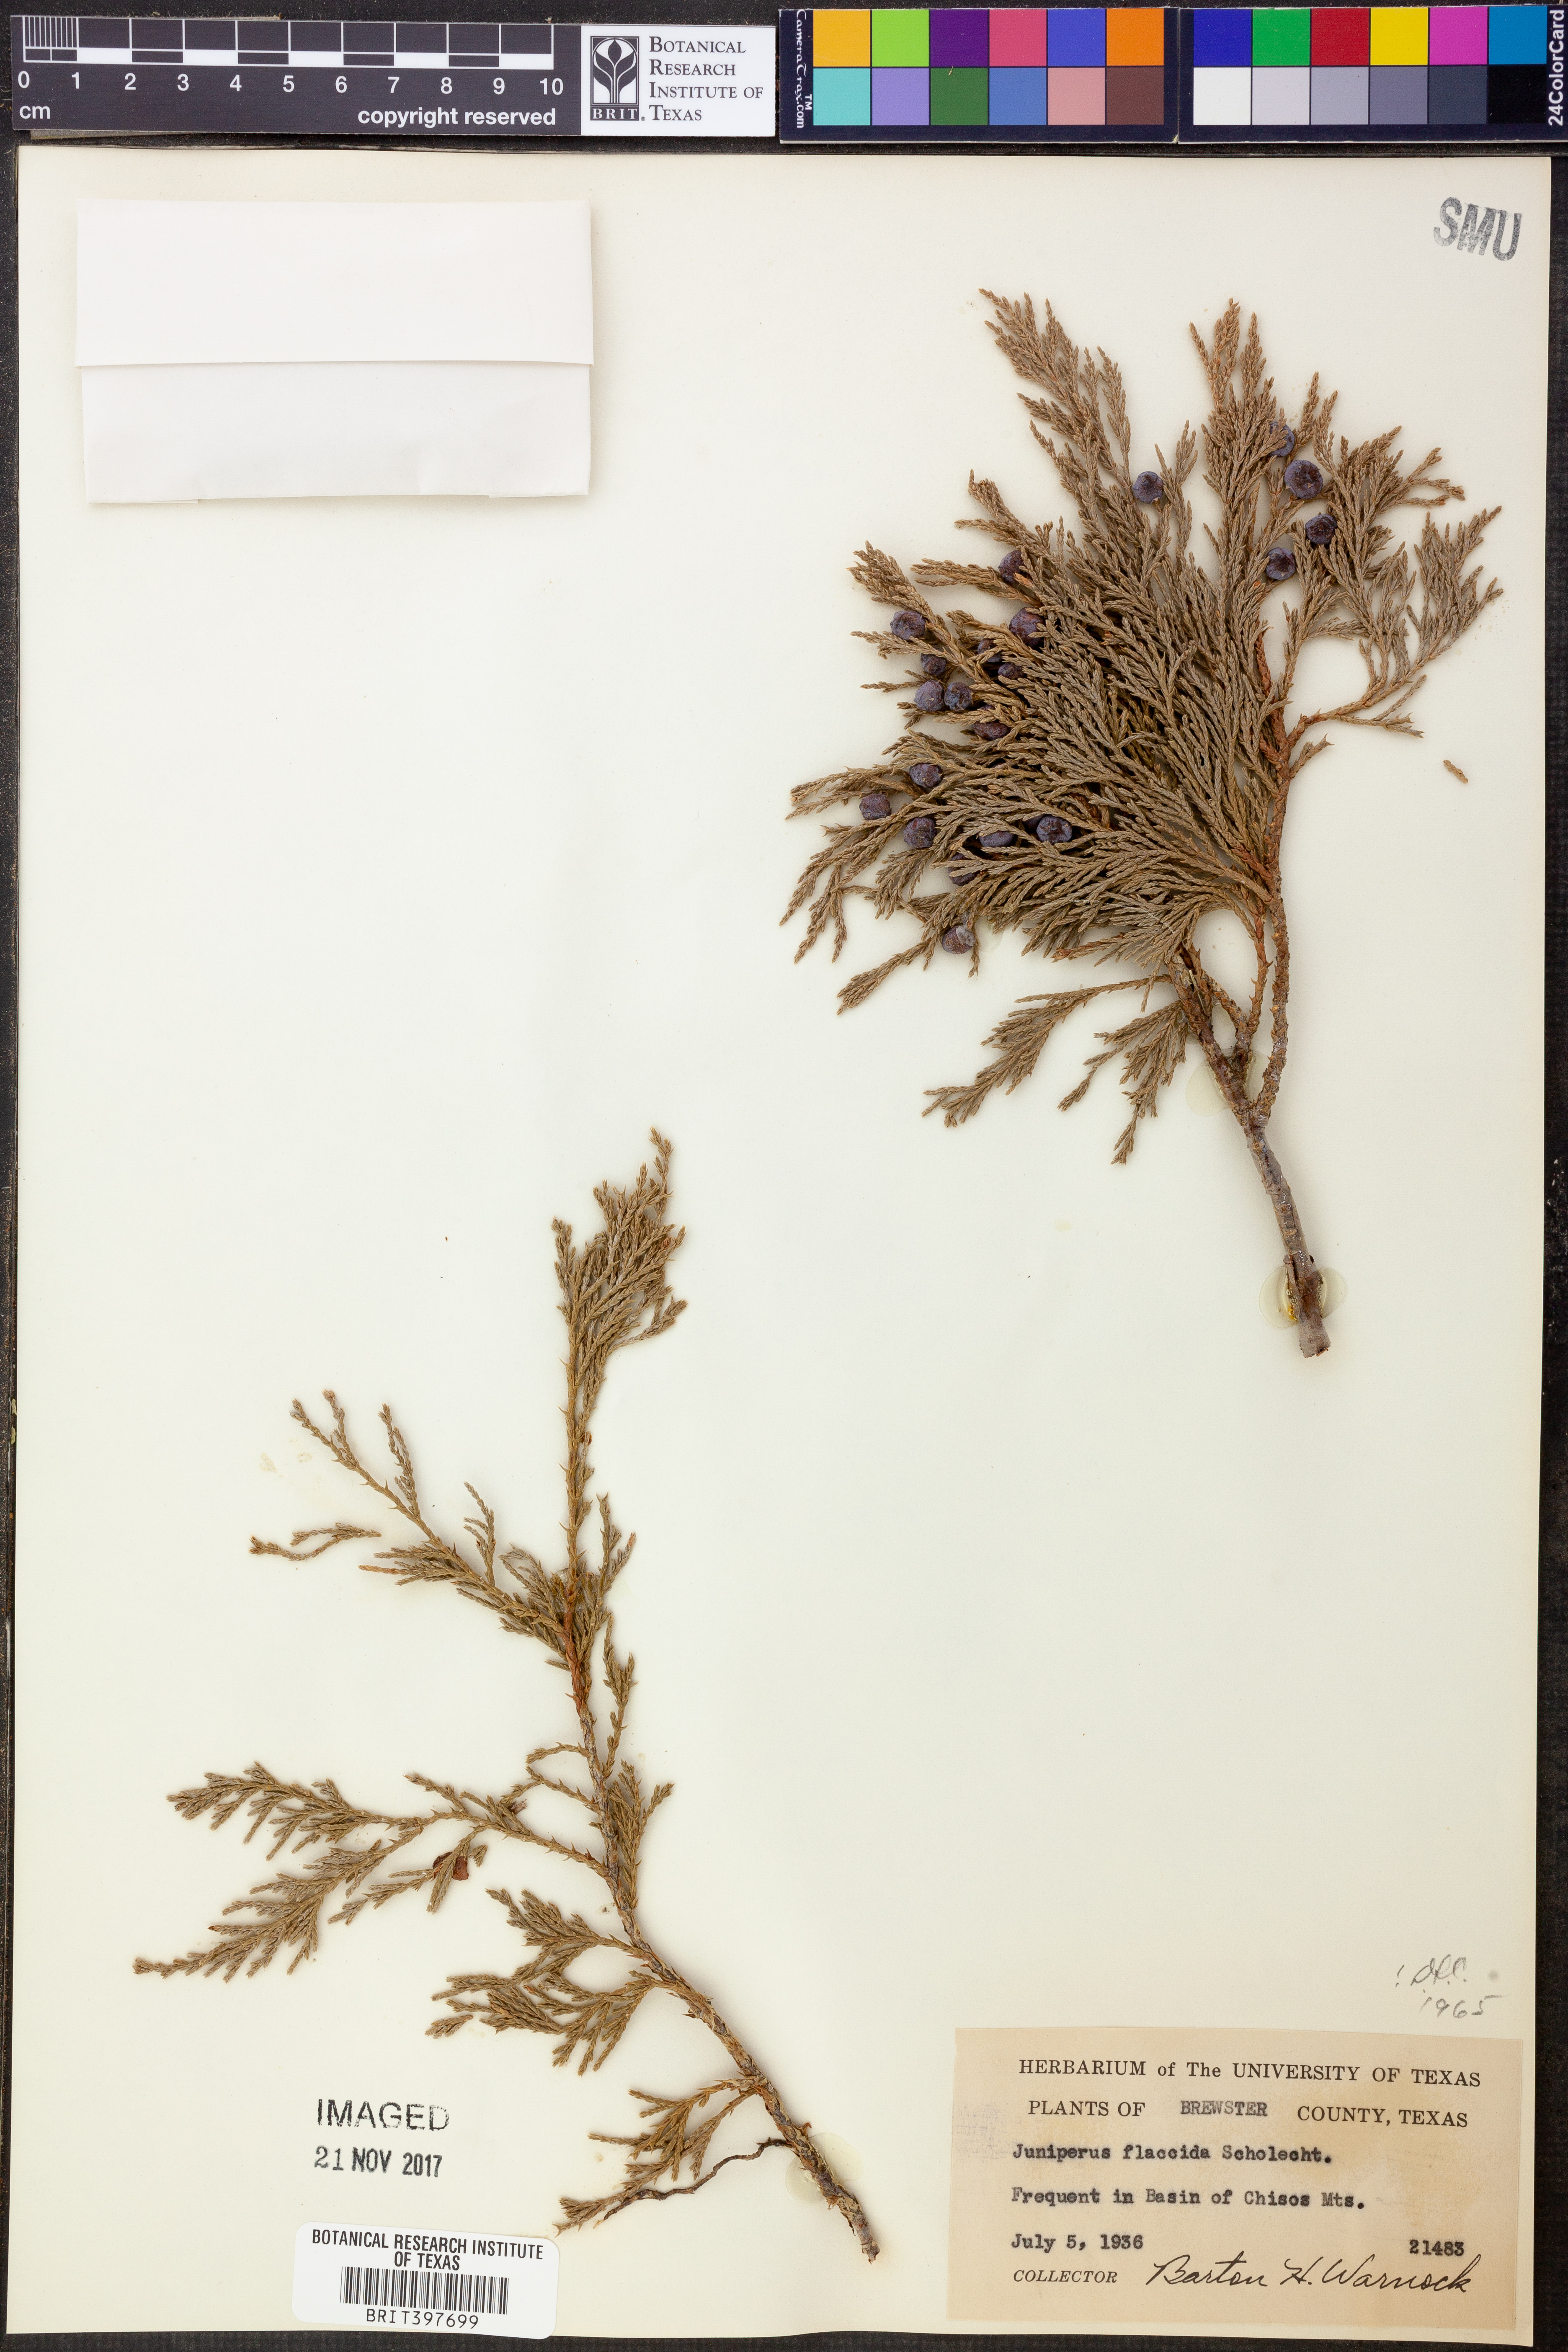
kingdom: Plantae
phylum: Tracheophyta
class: Pinopsida
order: Pinales
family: Cupressaceae
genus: Juniperus
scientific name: Juniperus flaccida
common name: Drooping juniper
